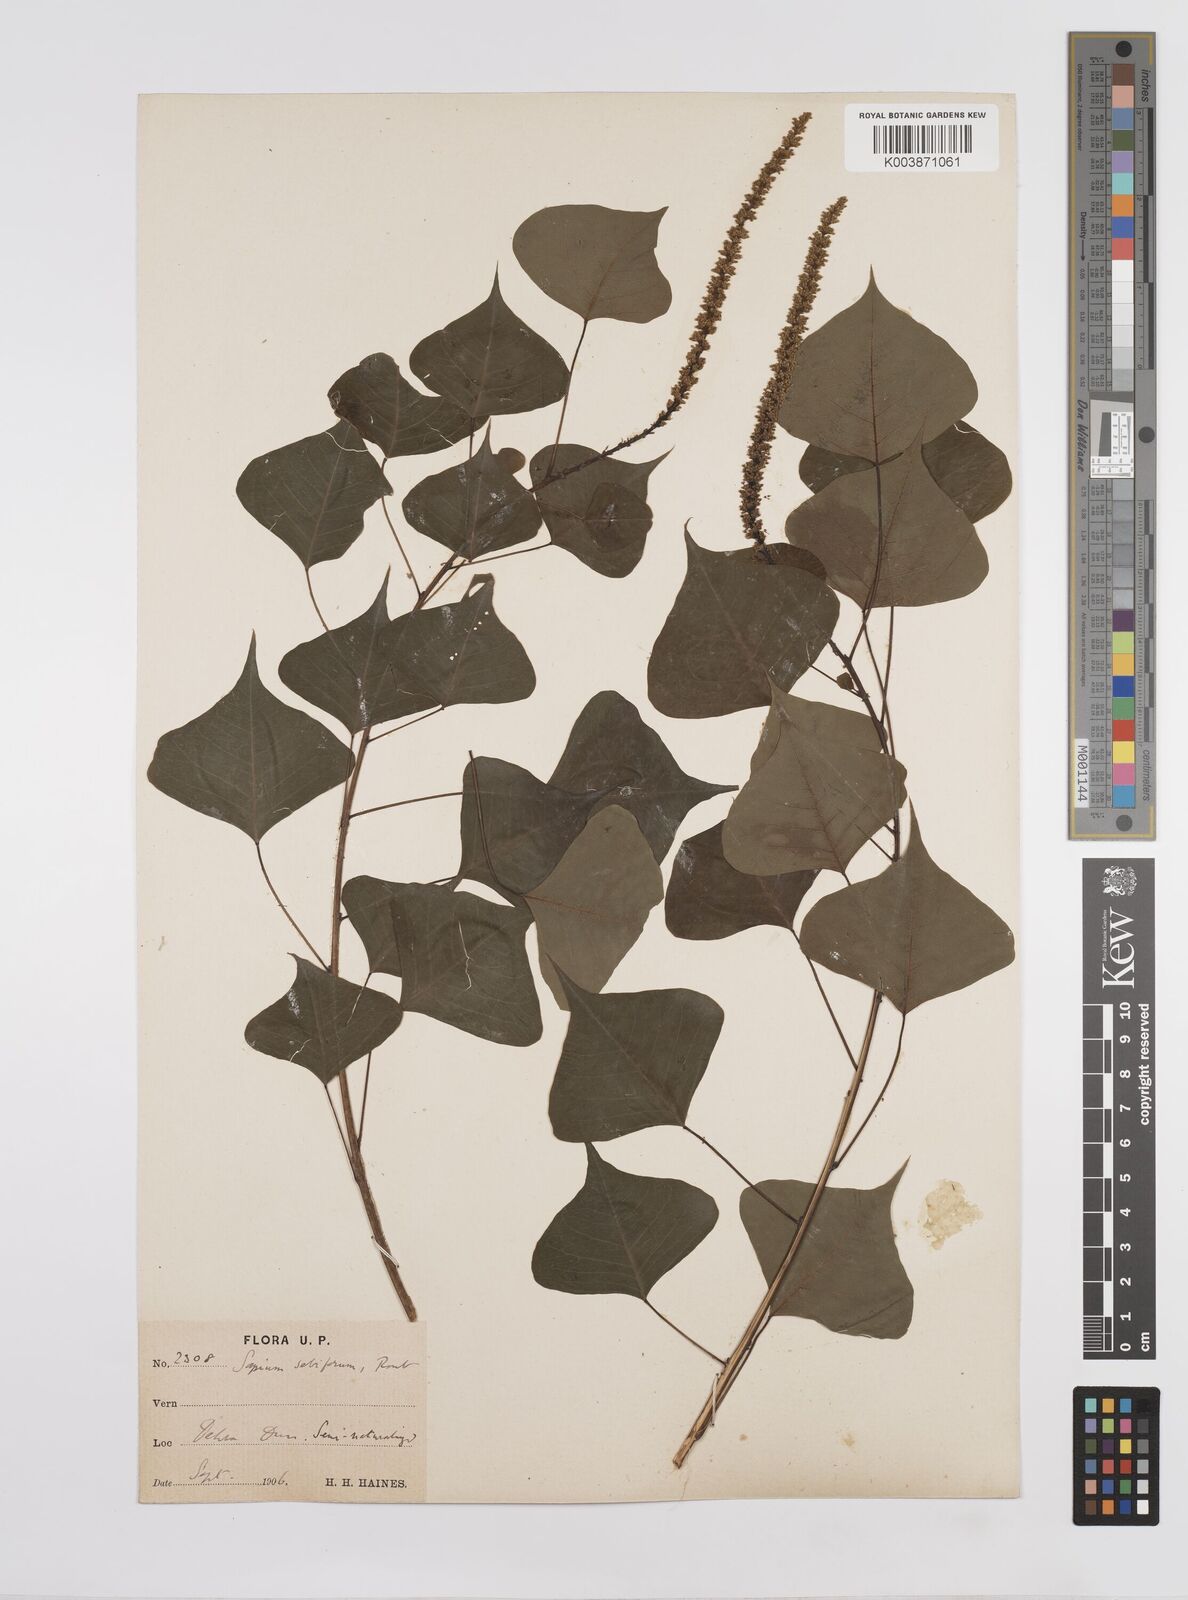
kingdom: Plantae
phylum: Tracheophyta
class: Magnoliopsida
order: Malpighiales
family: Euphorbiaceae
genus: Triadica
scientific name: Triadica sebifera
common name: Chinese tallow
